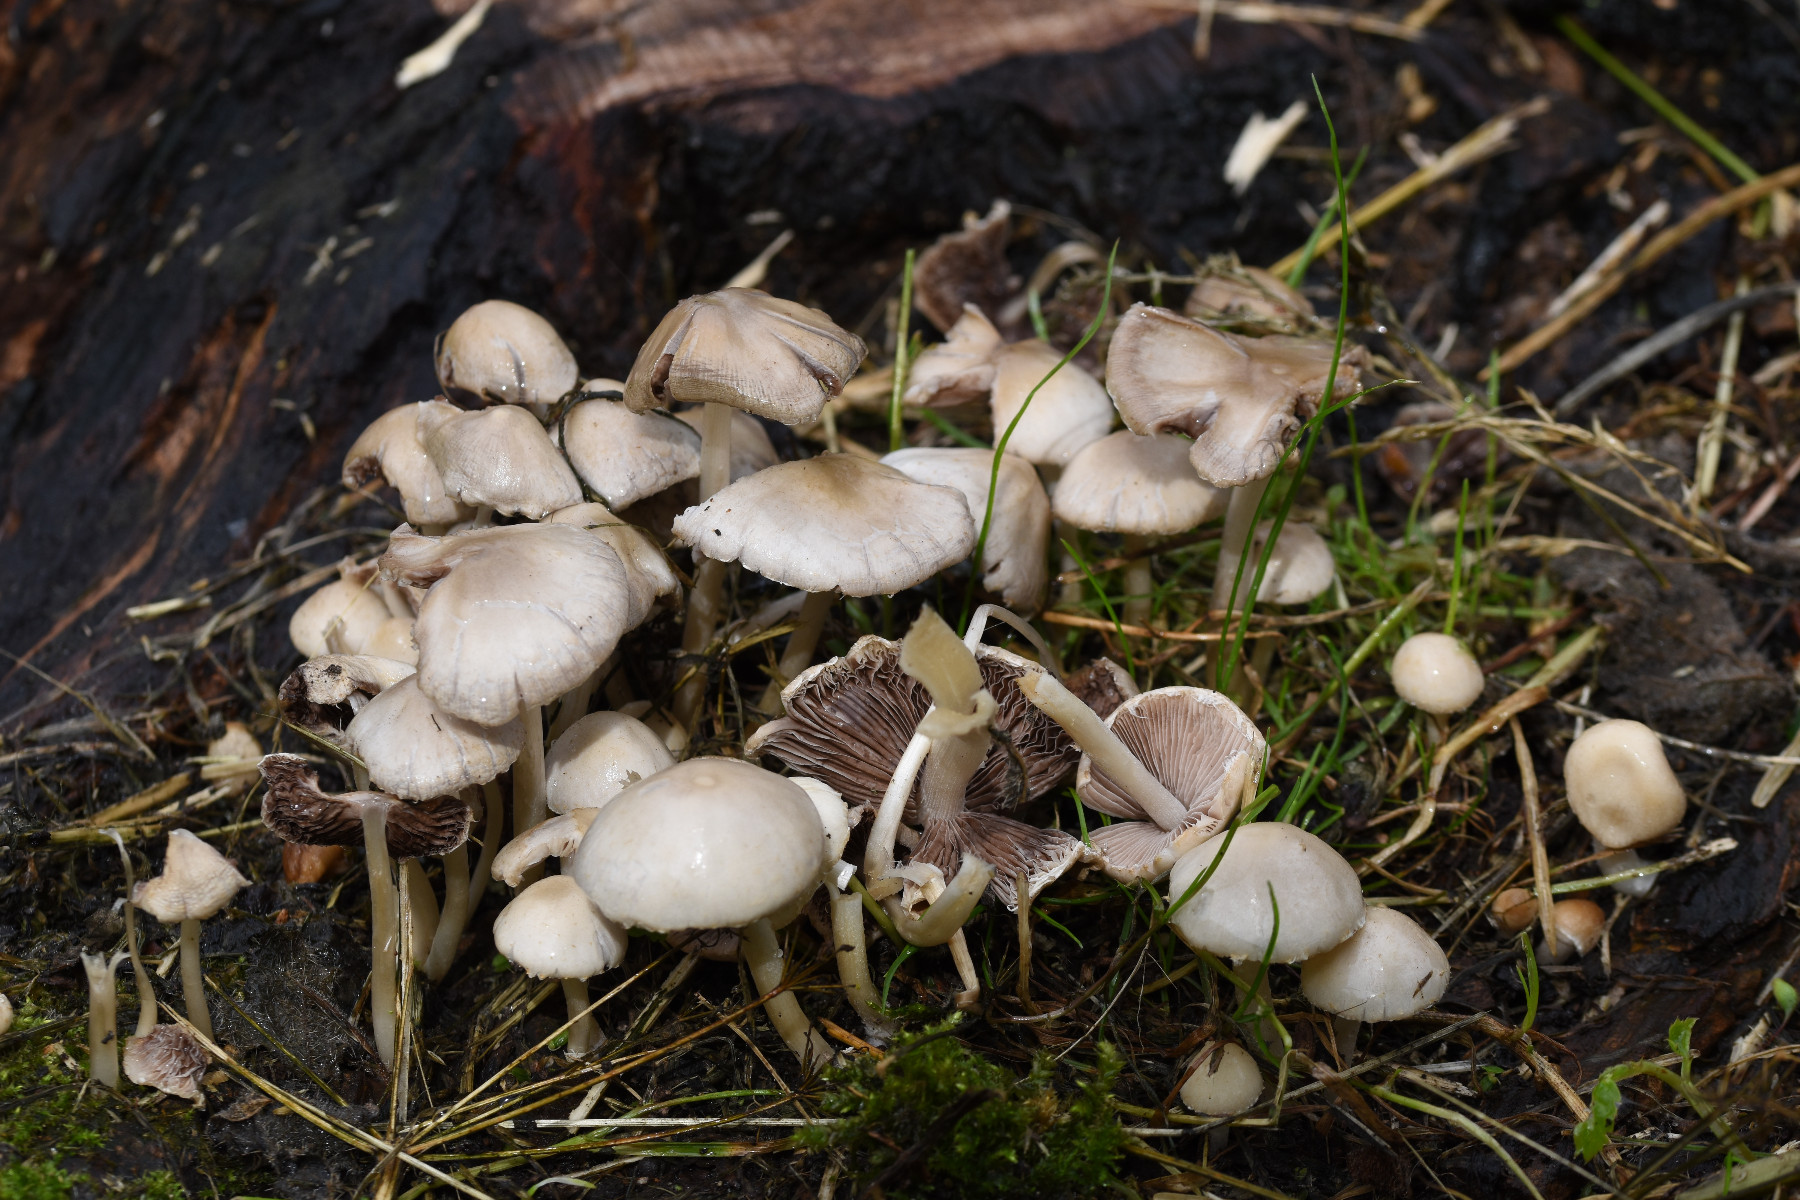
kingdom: Fungi
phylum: Basidiomycota
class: Agaricomycetes
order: Agaricales
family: Psathyrellaceae
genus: Candolleomyces
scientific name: Candolleomyces candolleanus
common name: Candolles mørkhat
